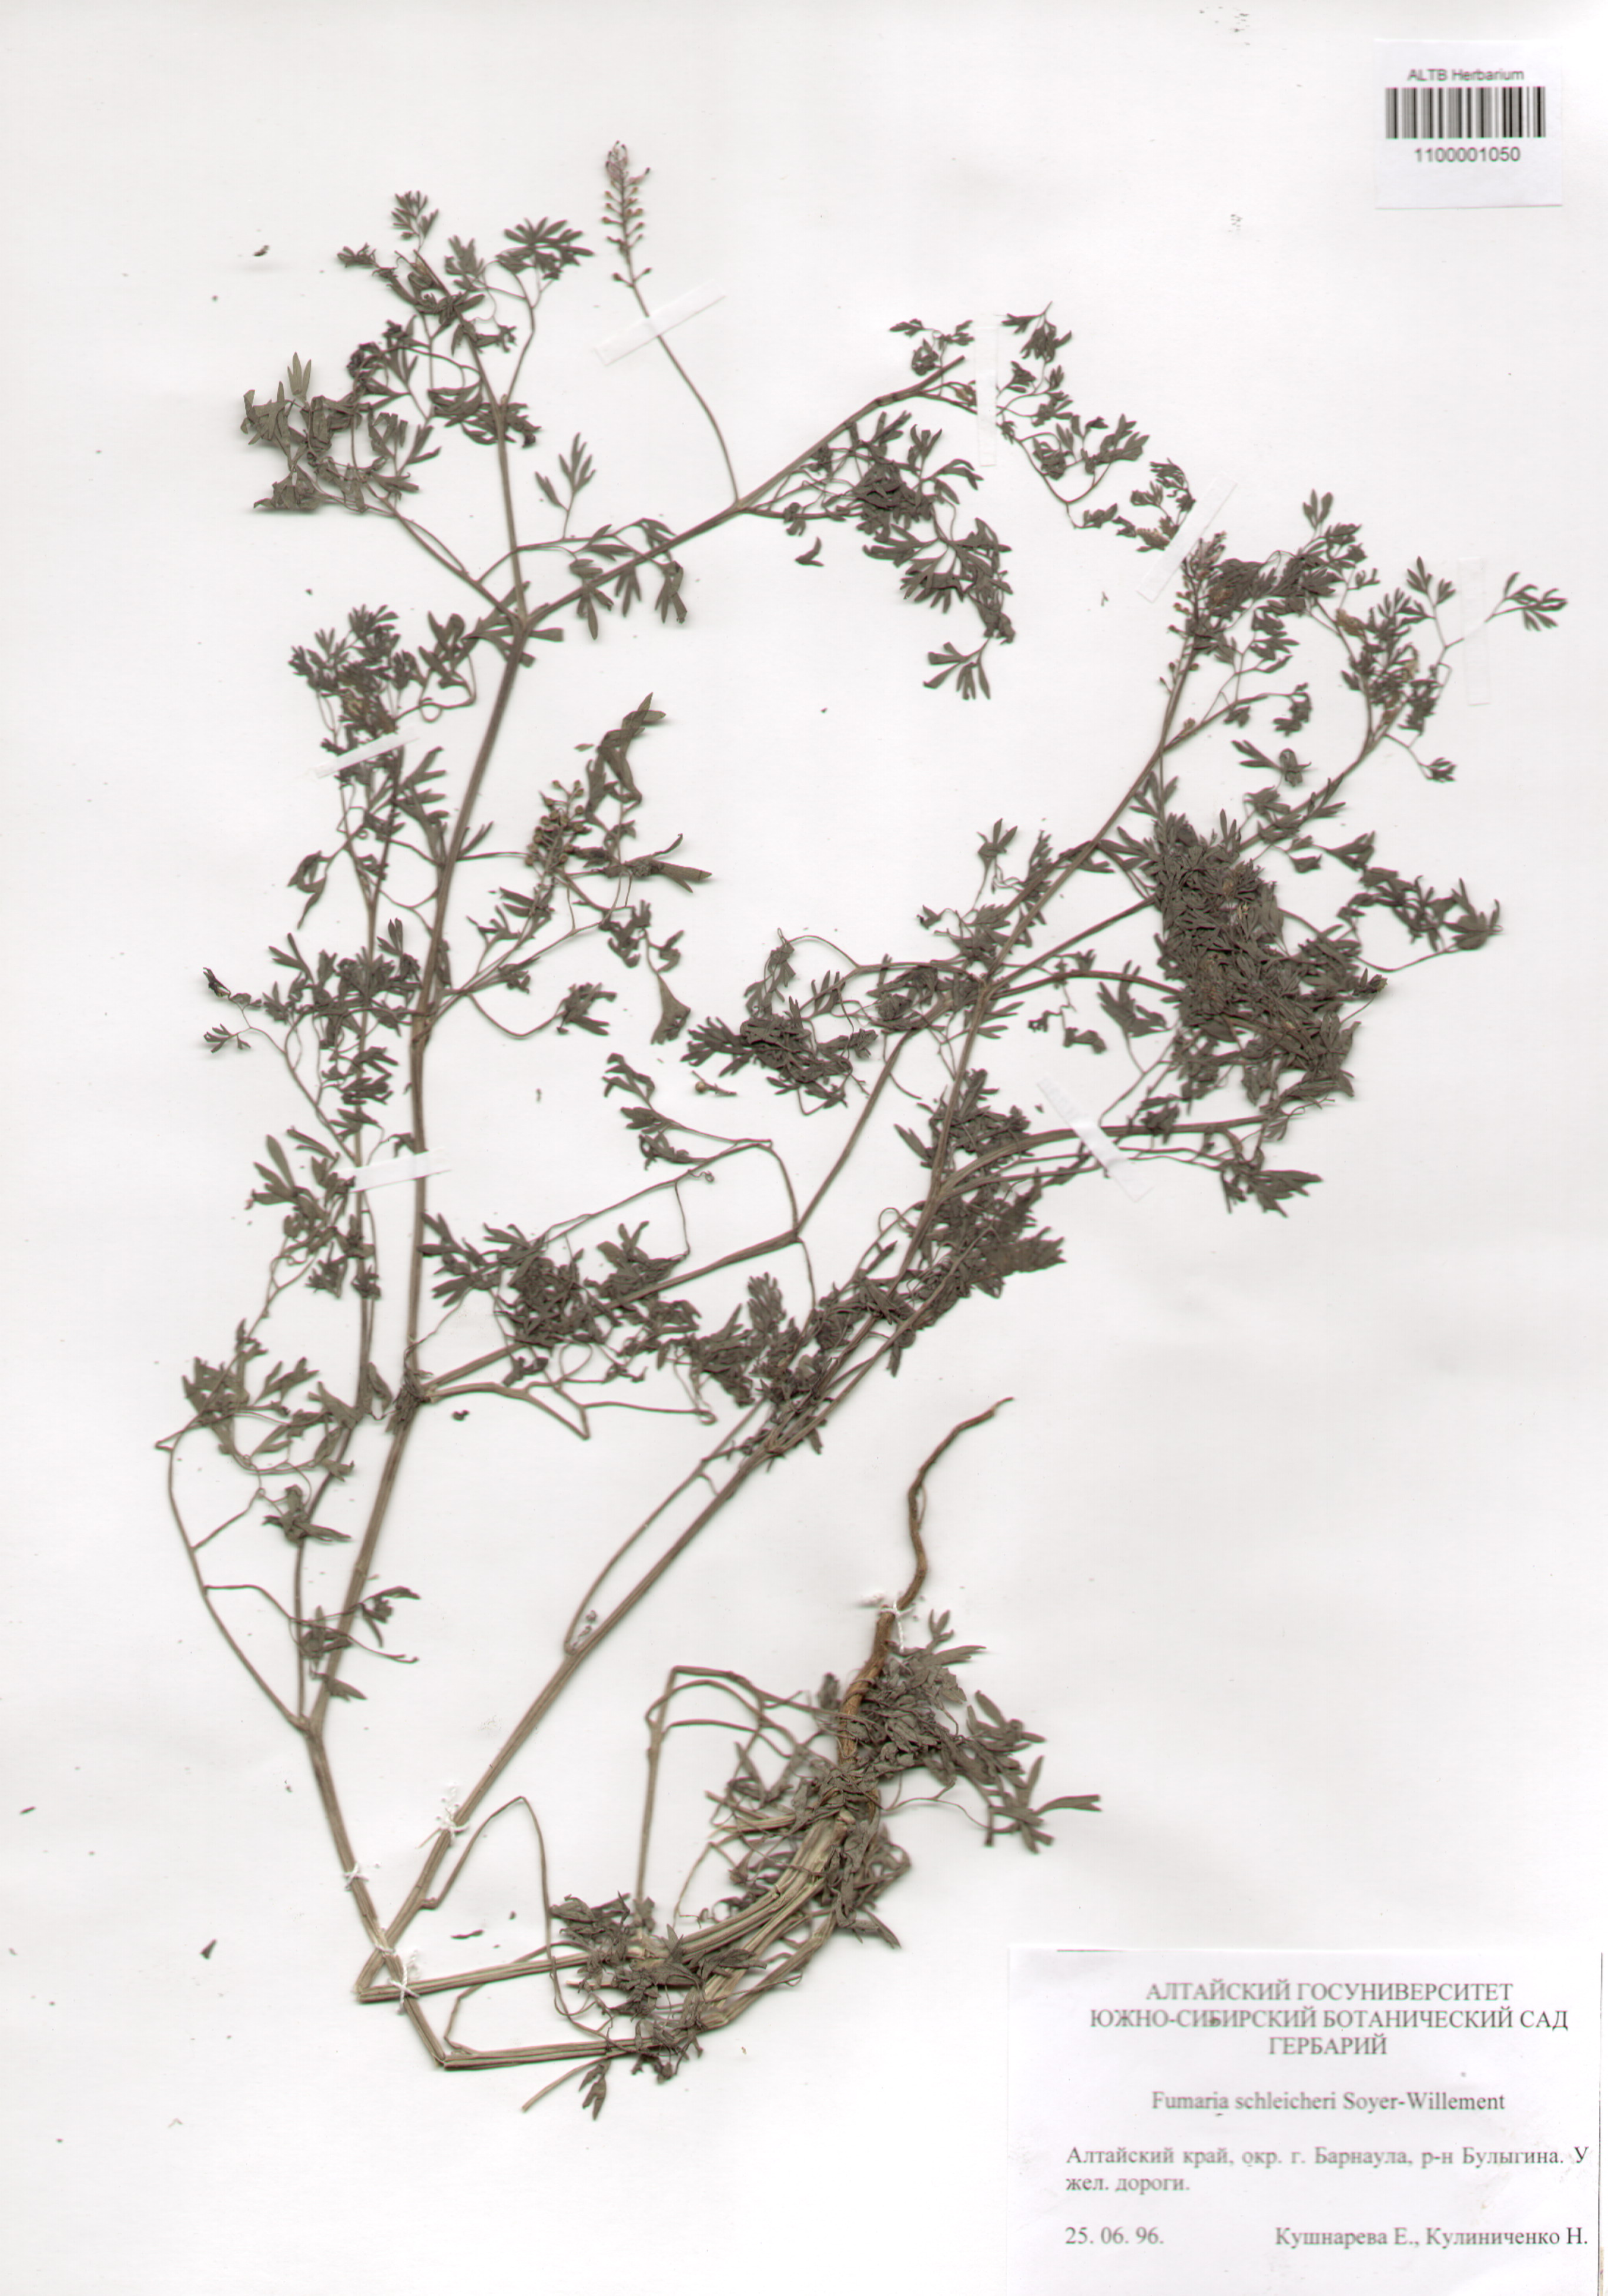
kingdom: Plantae
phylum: Tracheophyta
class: Magnoliopsida
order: Ranunculales
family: Papaveraceae
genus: Fumaria
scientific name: Fumaria schleicheri
